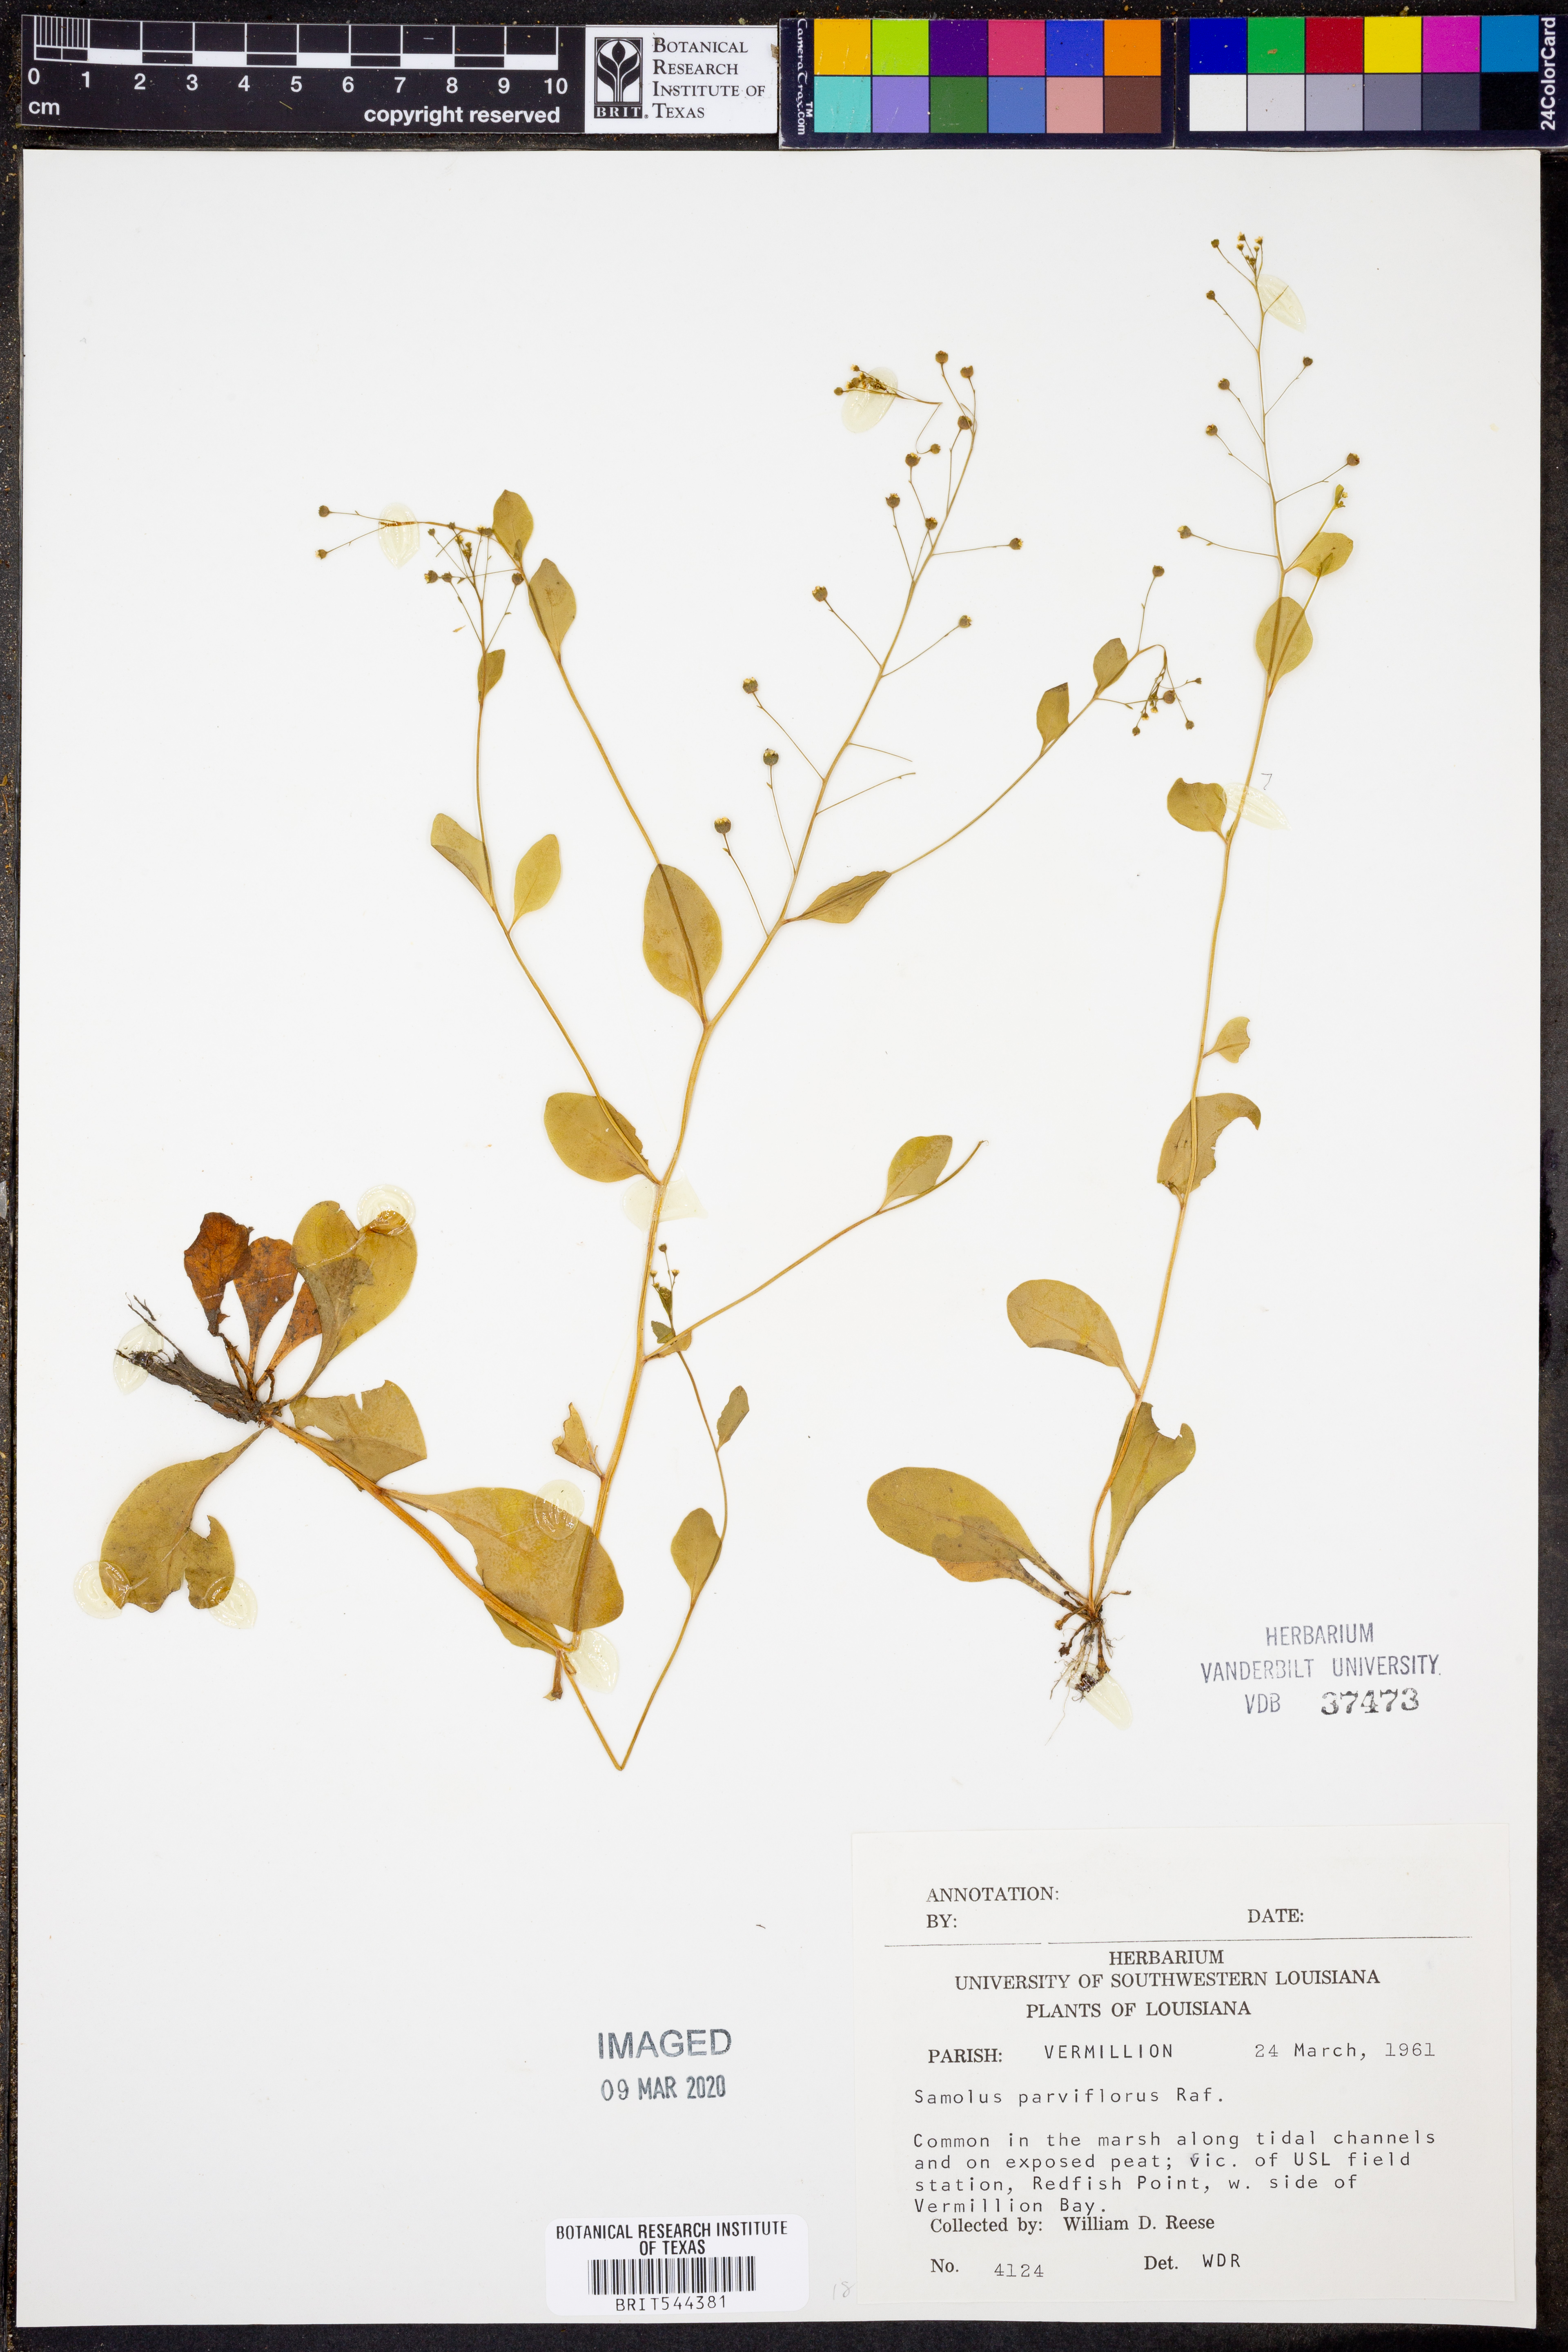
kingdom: Plantae
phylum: Tracheophyta
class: Magnoliopsida
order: Ericales
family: Primulaceae
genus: Samolus
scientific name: Samolus parviflorus
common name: False water pimpernel
